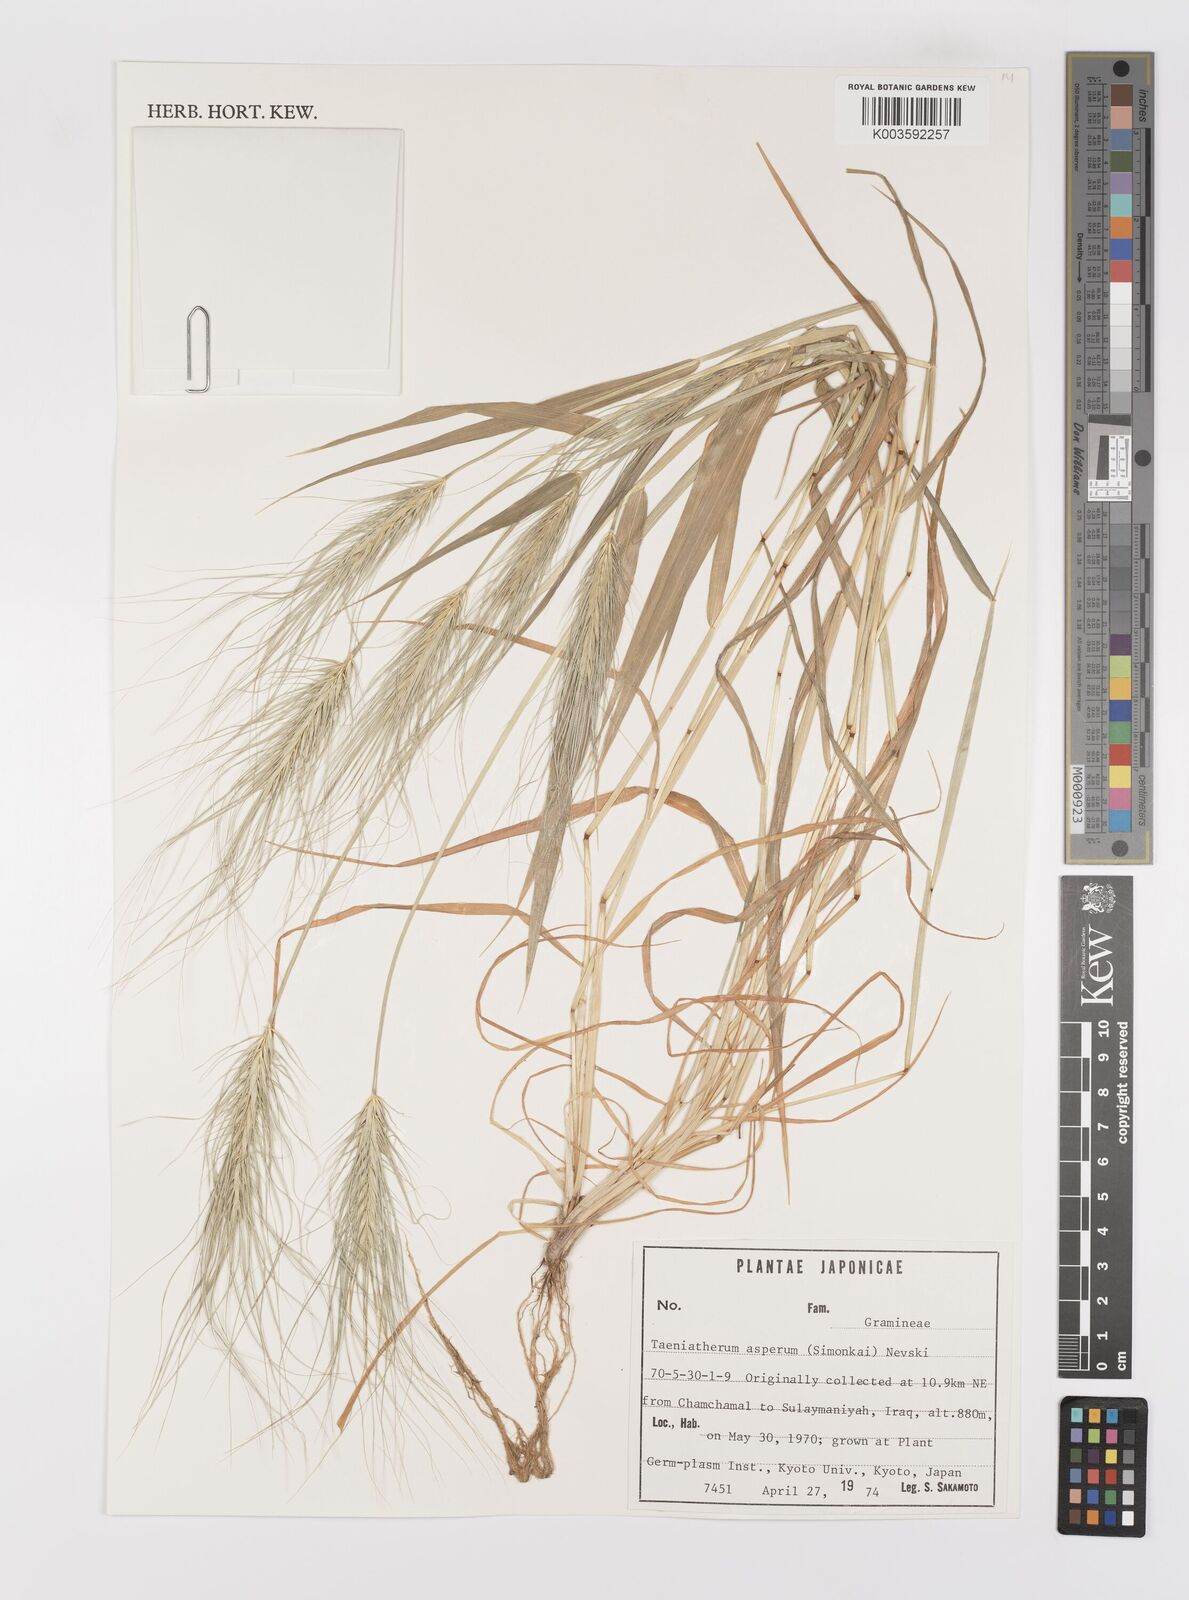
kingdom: Plantae
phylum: Tracheophyta
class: Liliopsida
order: Poales
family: Poaceae
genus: Taeniatherum
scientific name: Taeniatherum caput-medusae
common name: Medusahead
